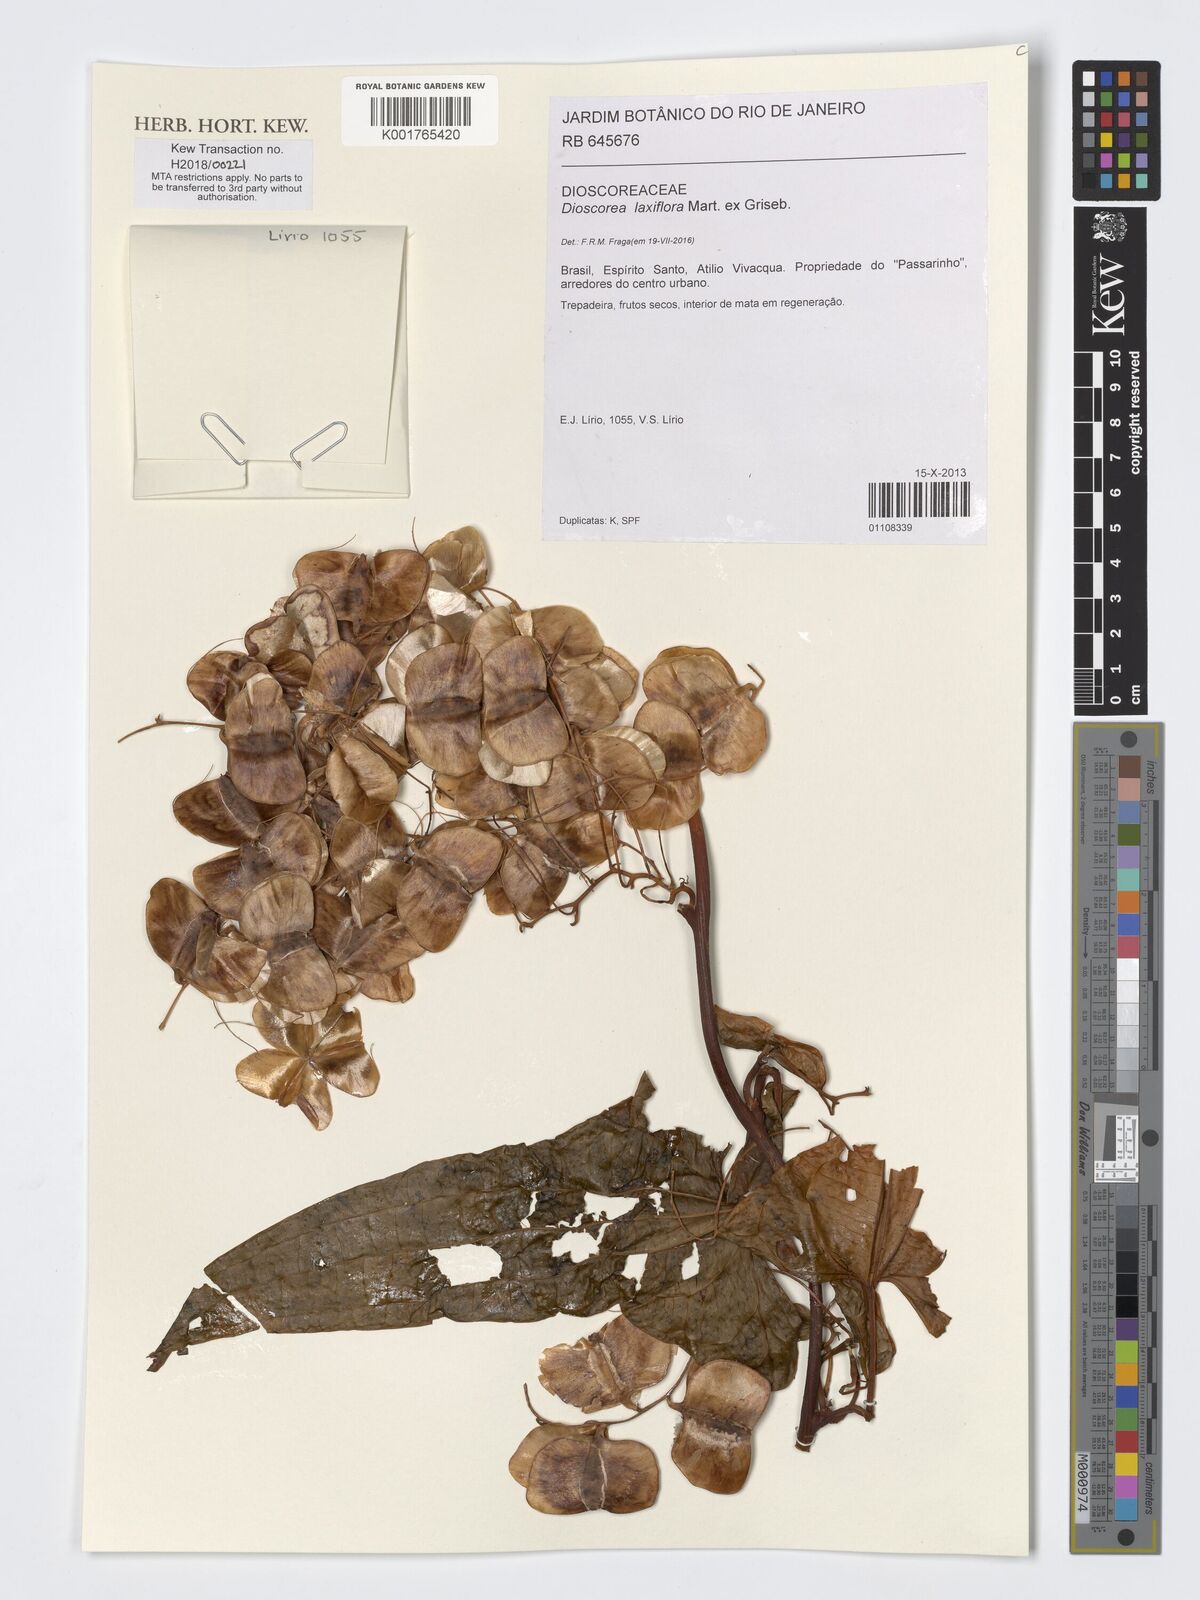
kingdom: Plantae
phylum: Tracheophyta
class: Liliopsida
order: Dioscoreales
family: Dioscoreaceae
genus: Dioscorea
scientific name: Dioscorea laxiflora
